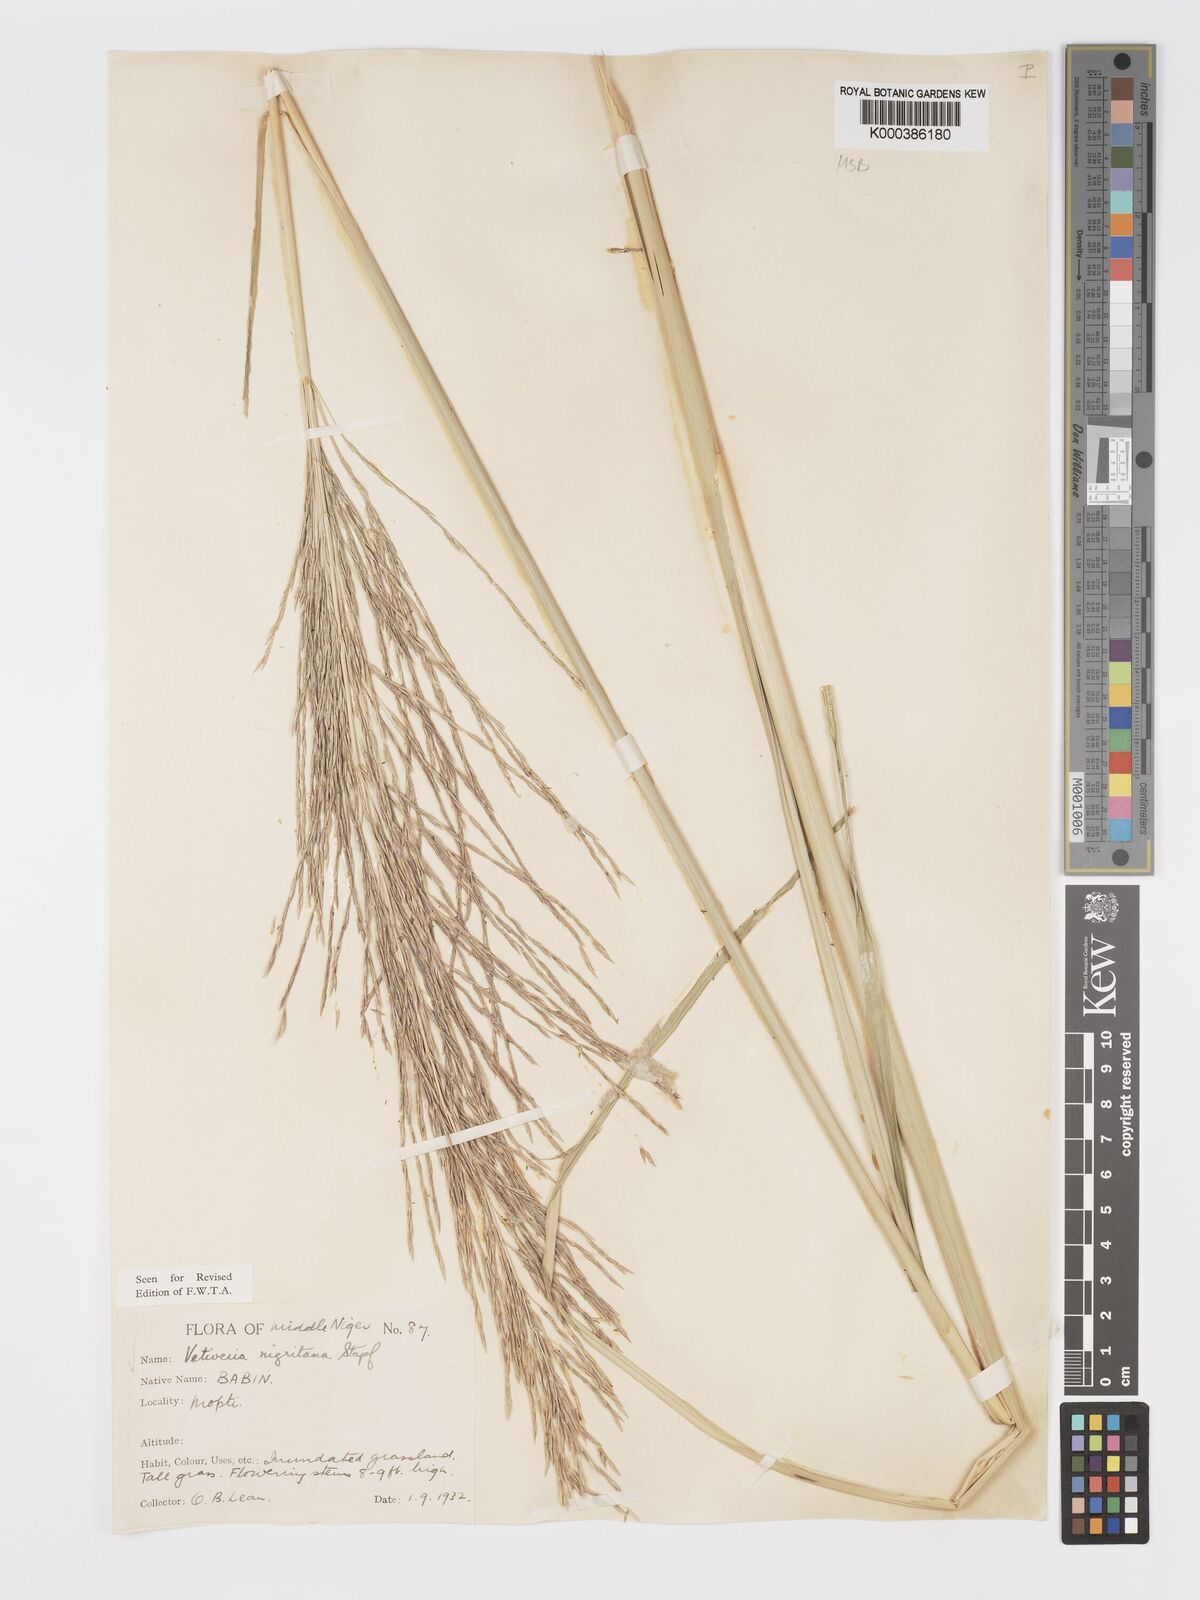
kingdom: Plantae
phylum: Tracheophyta
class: Liliopsida
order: Poales
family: Poaceae
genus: Chrysopogon
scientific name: Chrysopogon nigritanus
